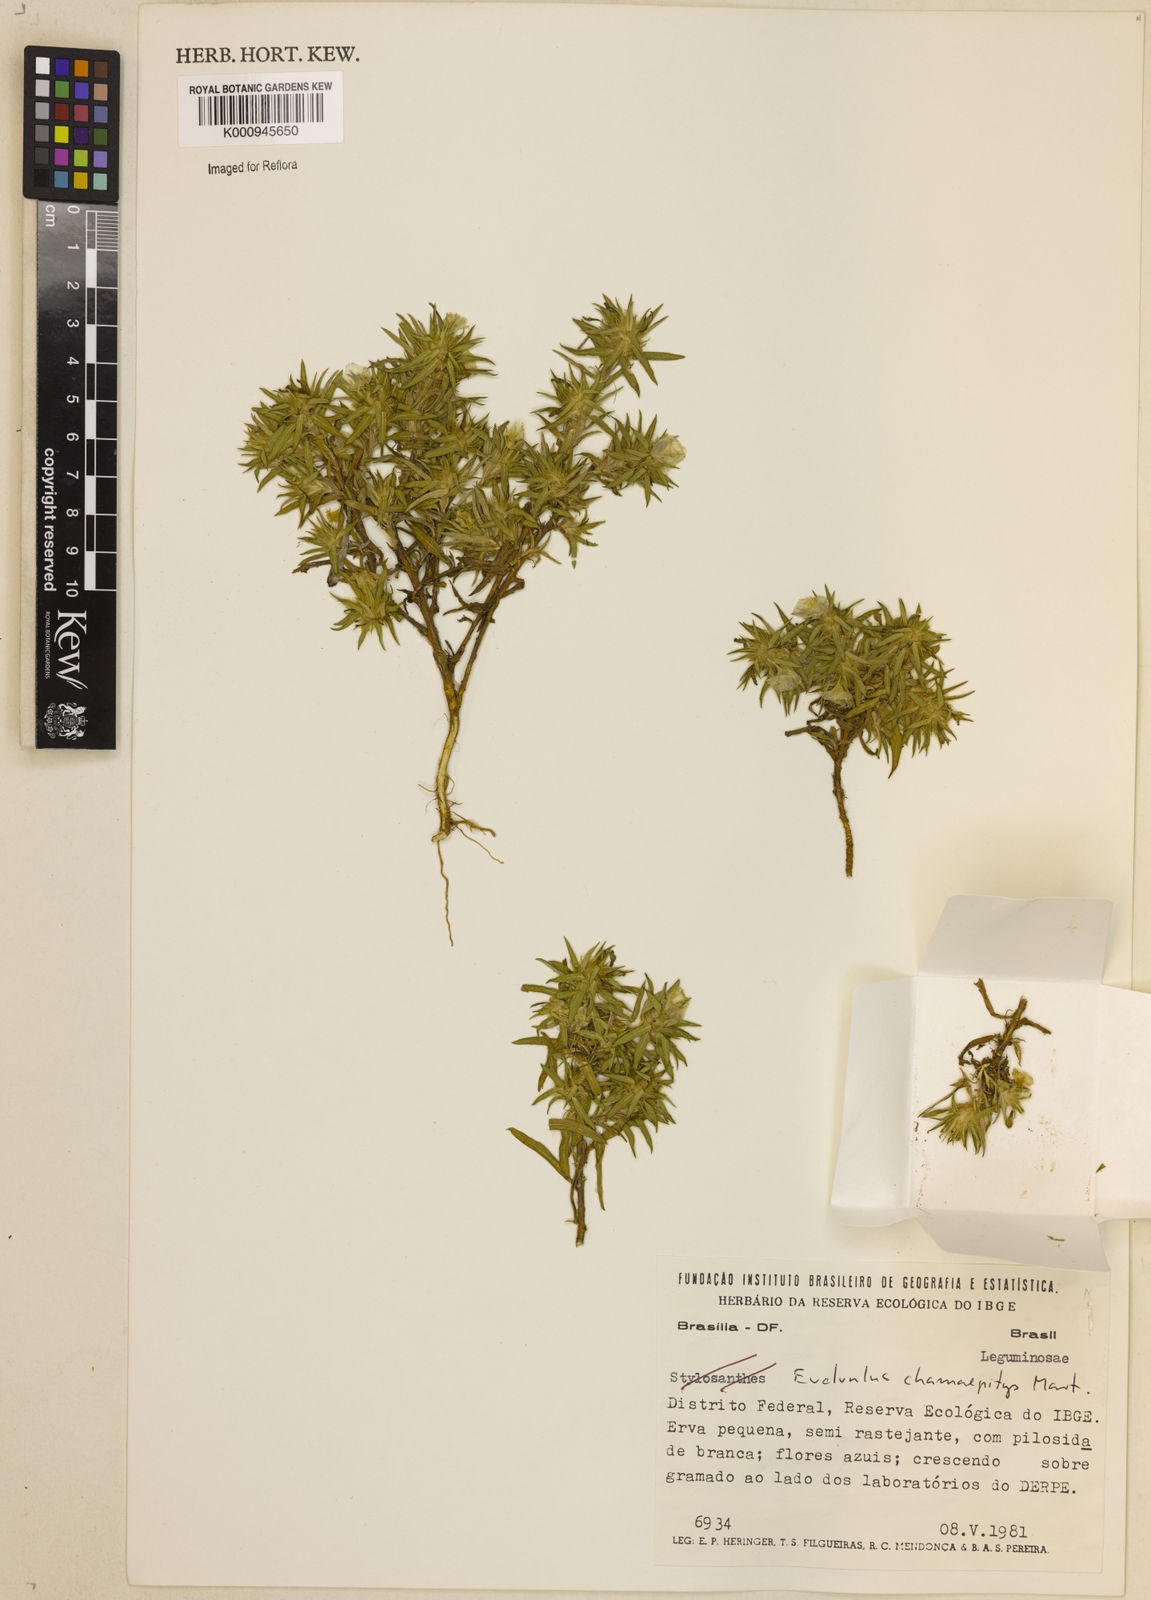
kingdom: Plantae
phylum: Tracheophyta
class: Magnoliopsida
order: Solanales
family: Convolvulaceae
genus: Evolvulus
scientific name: Evolvulus chamaepitys
